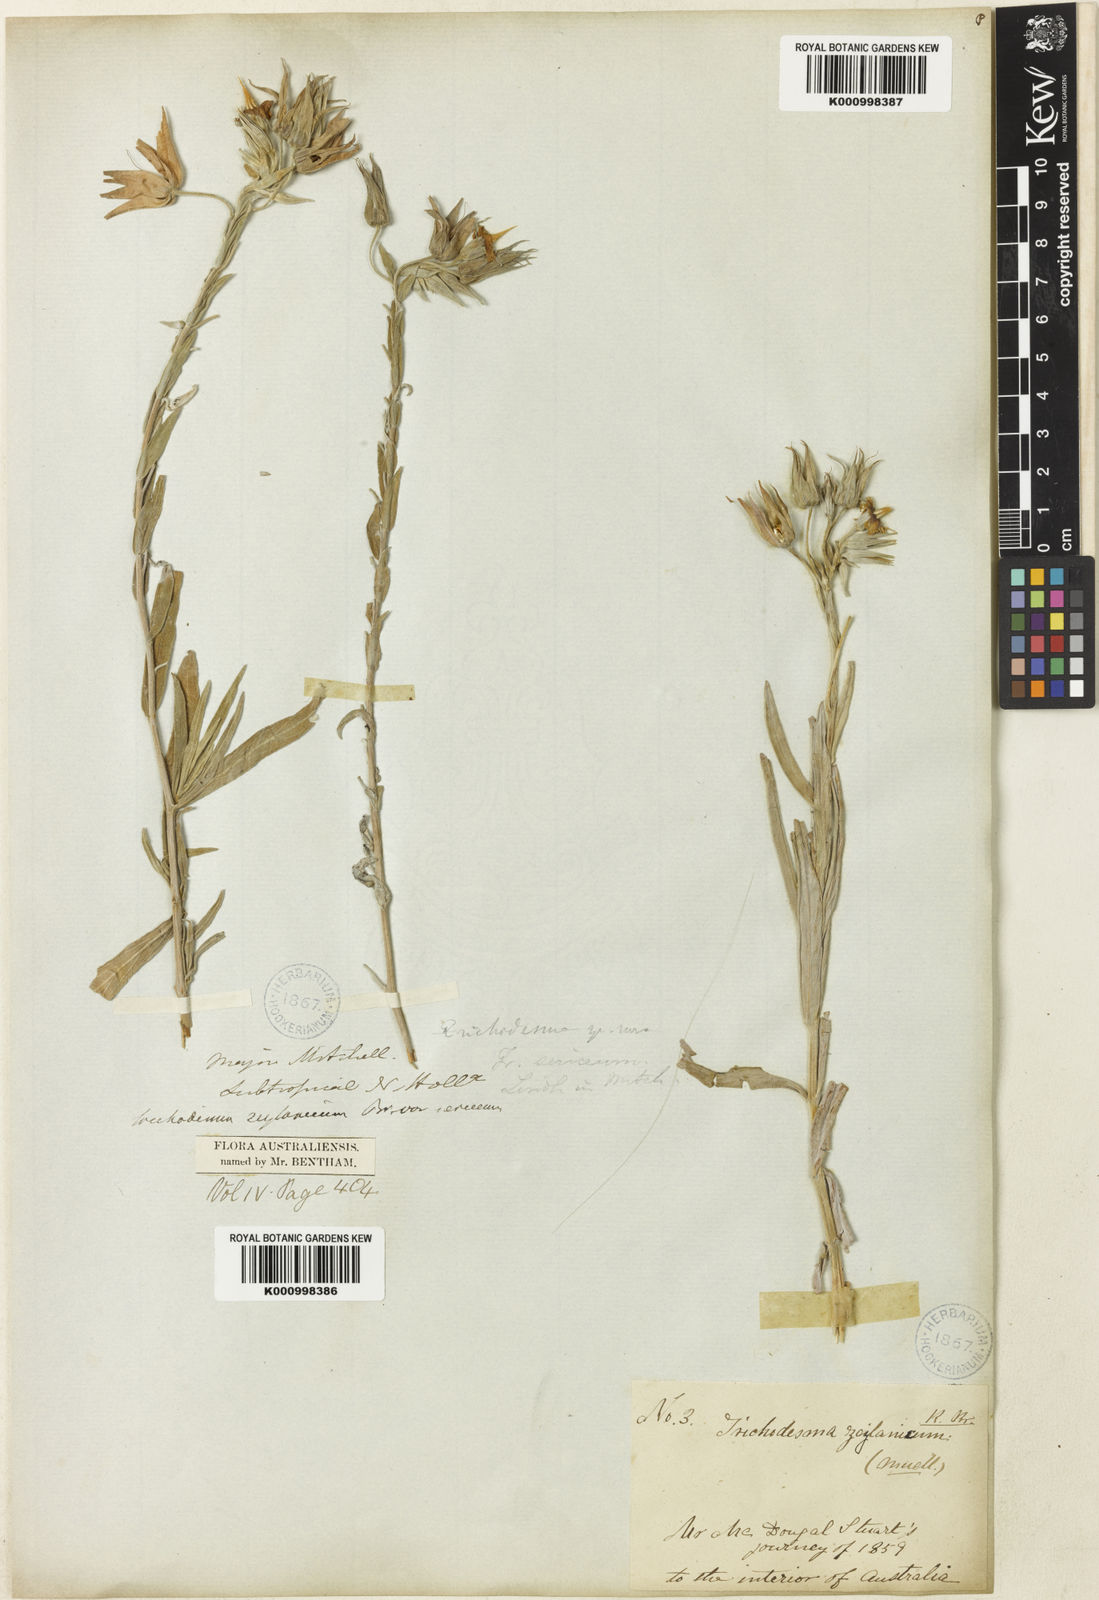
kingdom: Plantae
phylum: Tracheophyta
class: Magnoliopsida
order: Boraginales
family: Boraginaceae
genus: Trichodesma
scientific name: Trichodesma zeylanicum
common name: Camelbush
